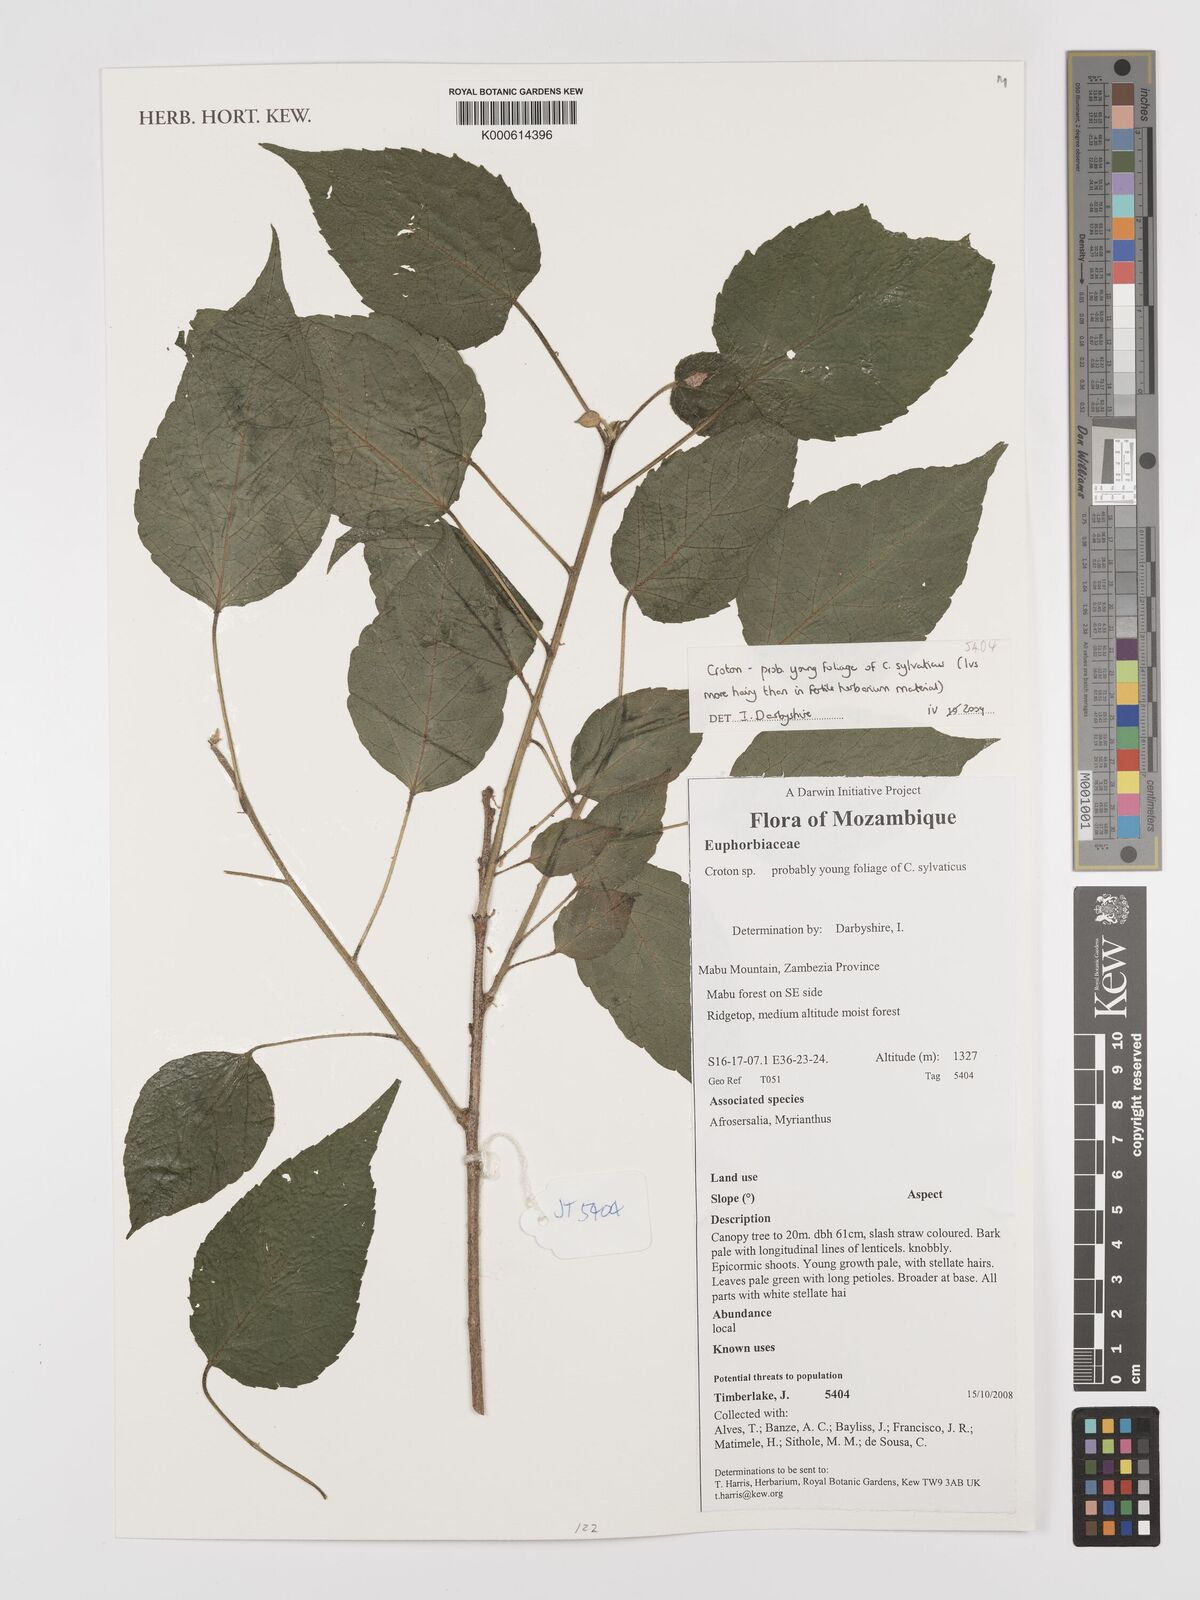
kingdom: Plantae
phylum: Tracheophyta
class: Magnoliopsida
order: Malpighiales
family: Euphorbiaceae
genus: Croton
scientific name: Croton
